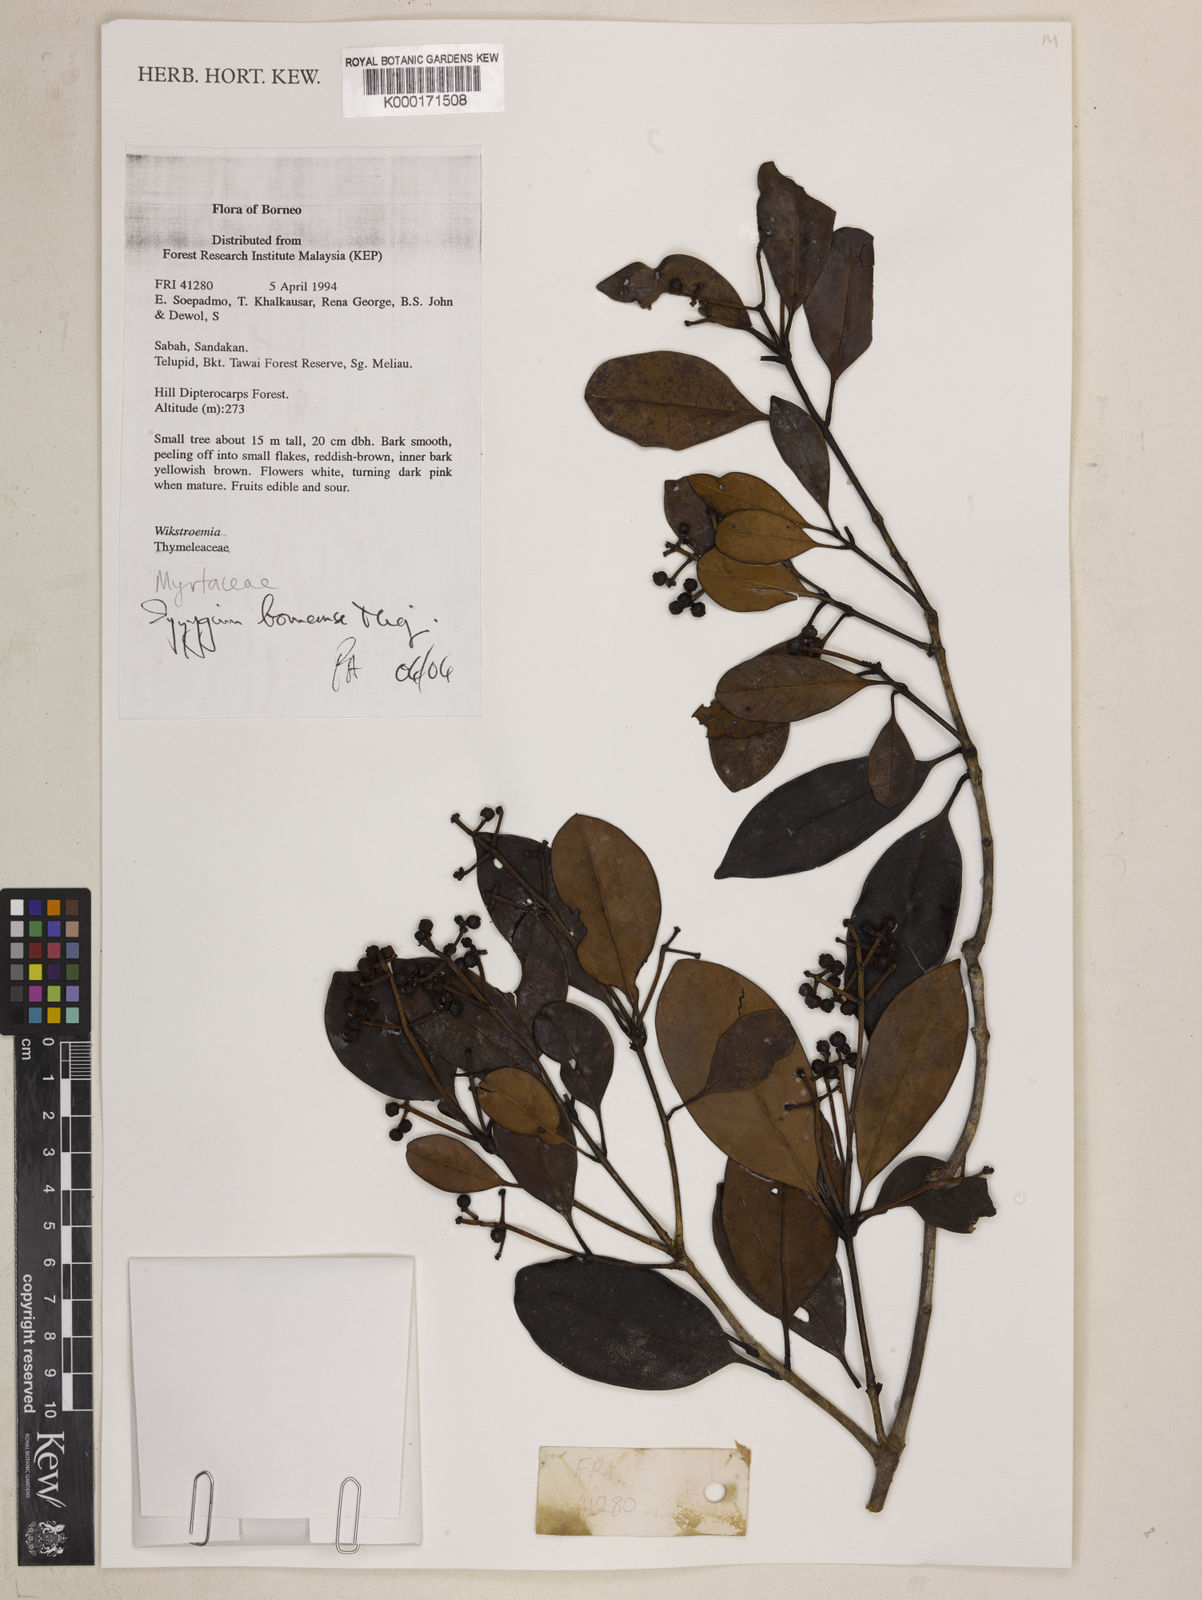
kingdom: Plantae
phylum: Tracheophyta
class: Magnoliopsida
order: Myrtales
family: Myrtaceae
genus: Syzygium
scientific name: Syzygium borneense
